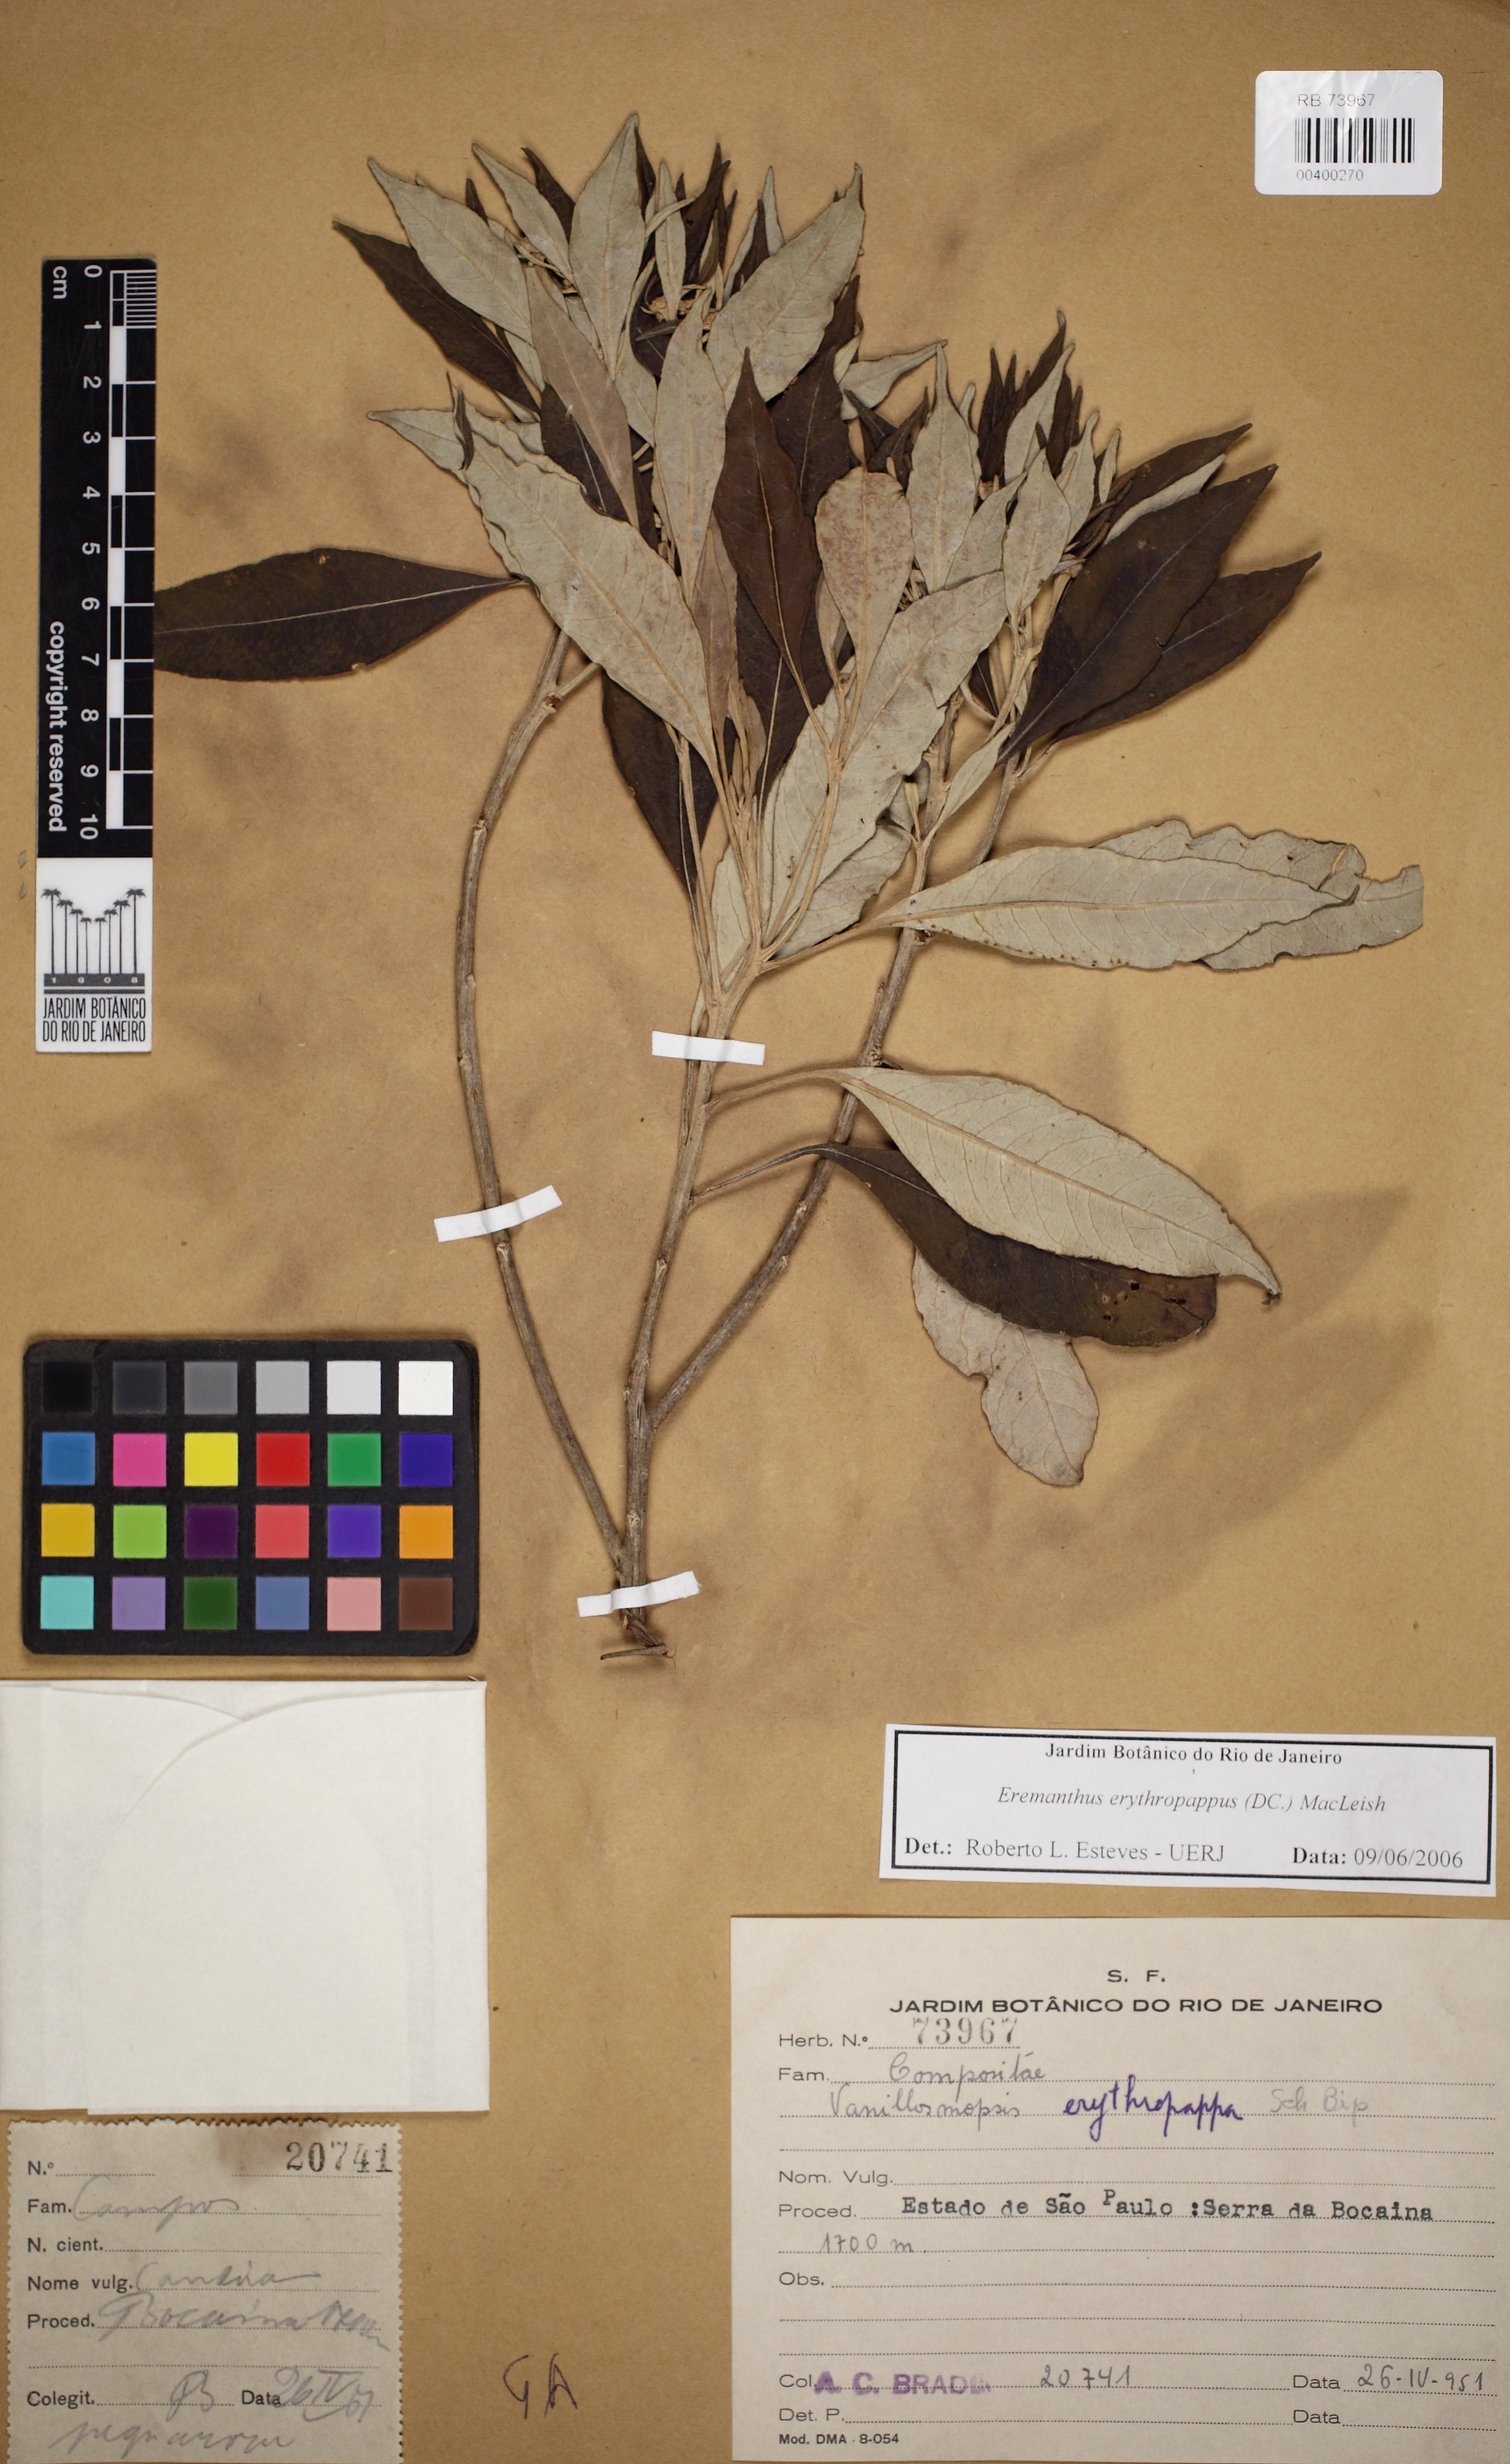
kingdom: Plantae
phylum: Tracheophyta
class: Magnoliopsida
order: Asterales
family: Asteraceae
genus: Eremanthus
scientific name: Eremanthus erythropappus
